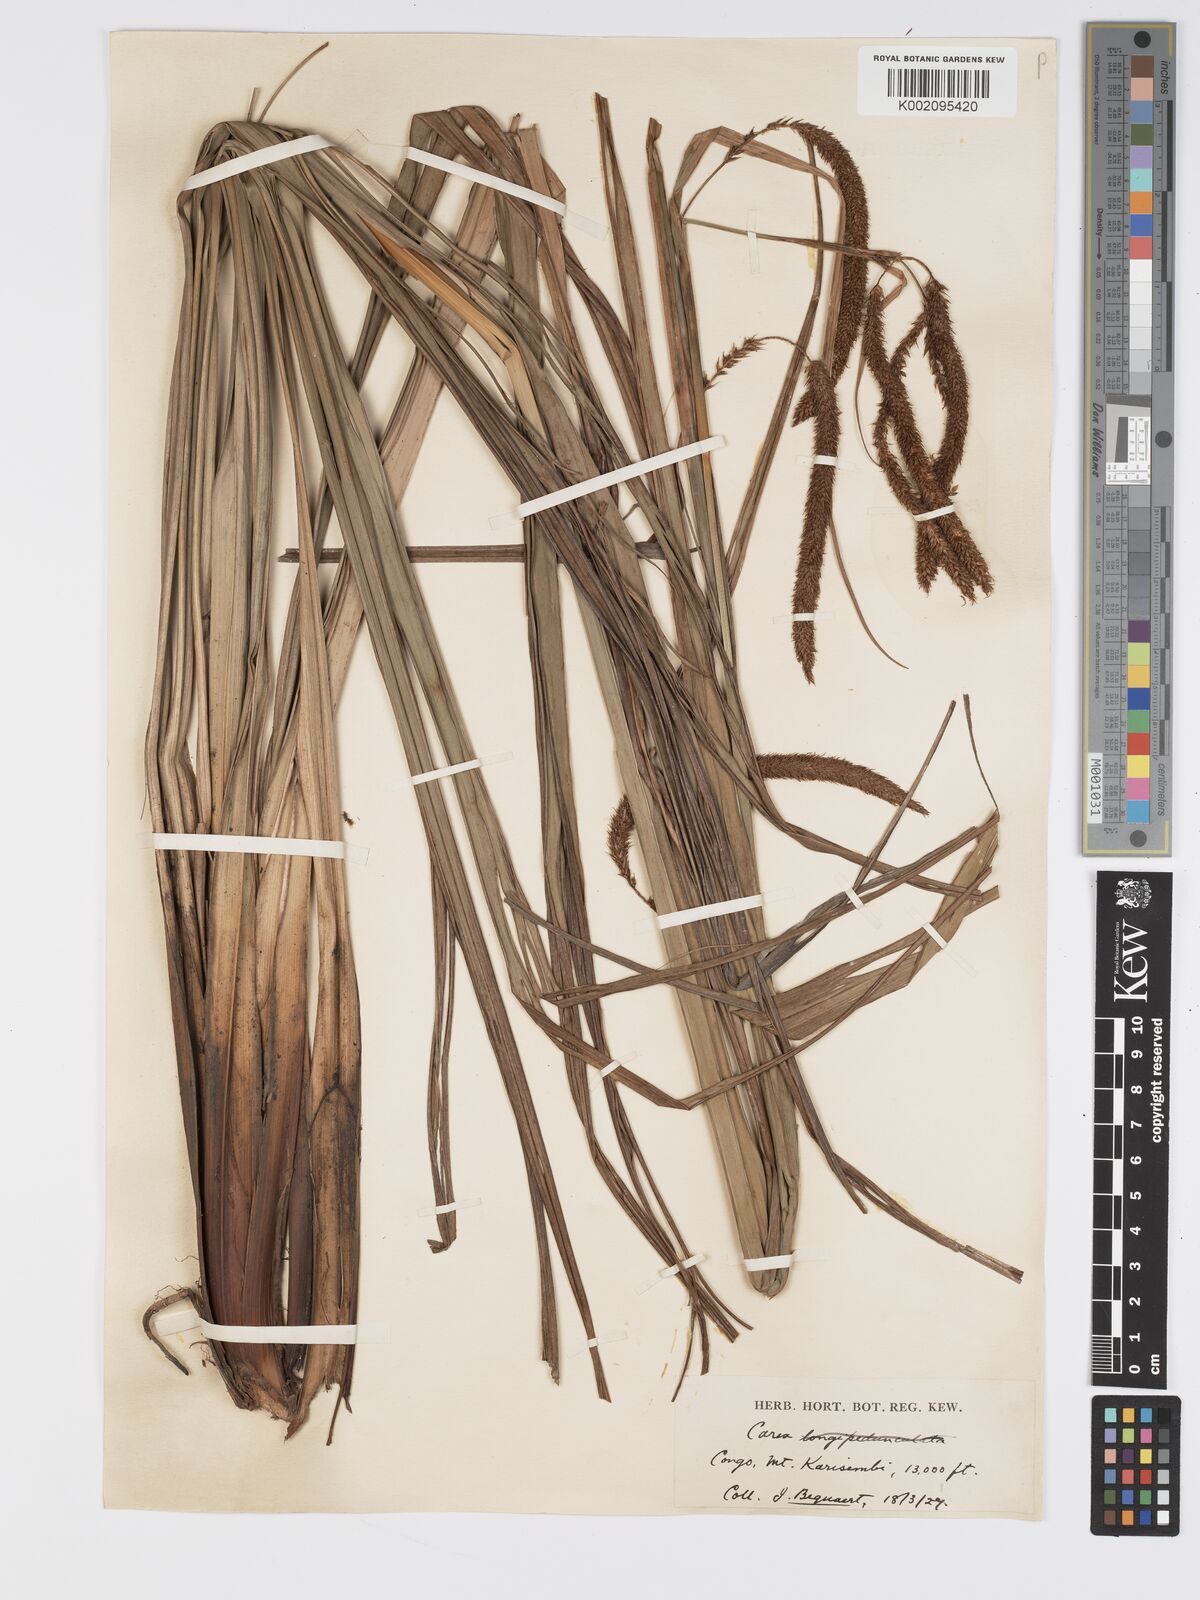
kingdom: Plantae
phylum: Tracheophyta
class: Liliopsida
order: Poales
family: Cyperaceae
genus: Carex
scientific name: Carex bequaertii
